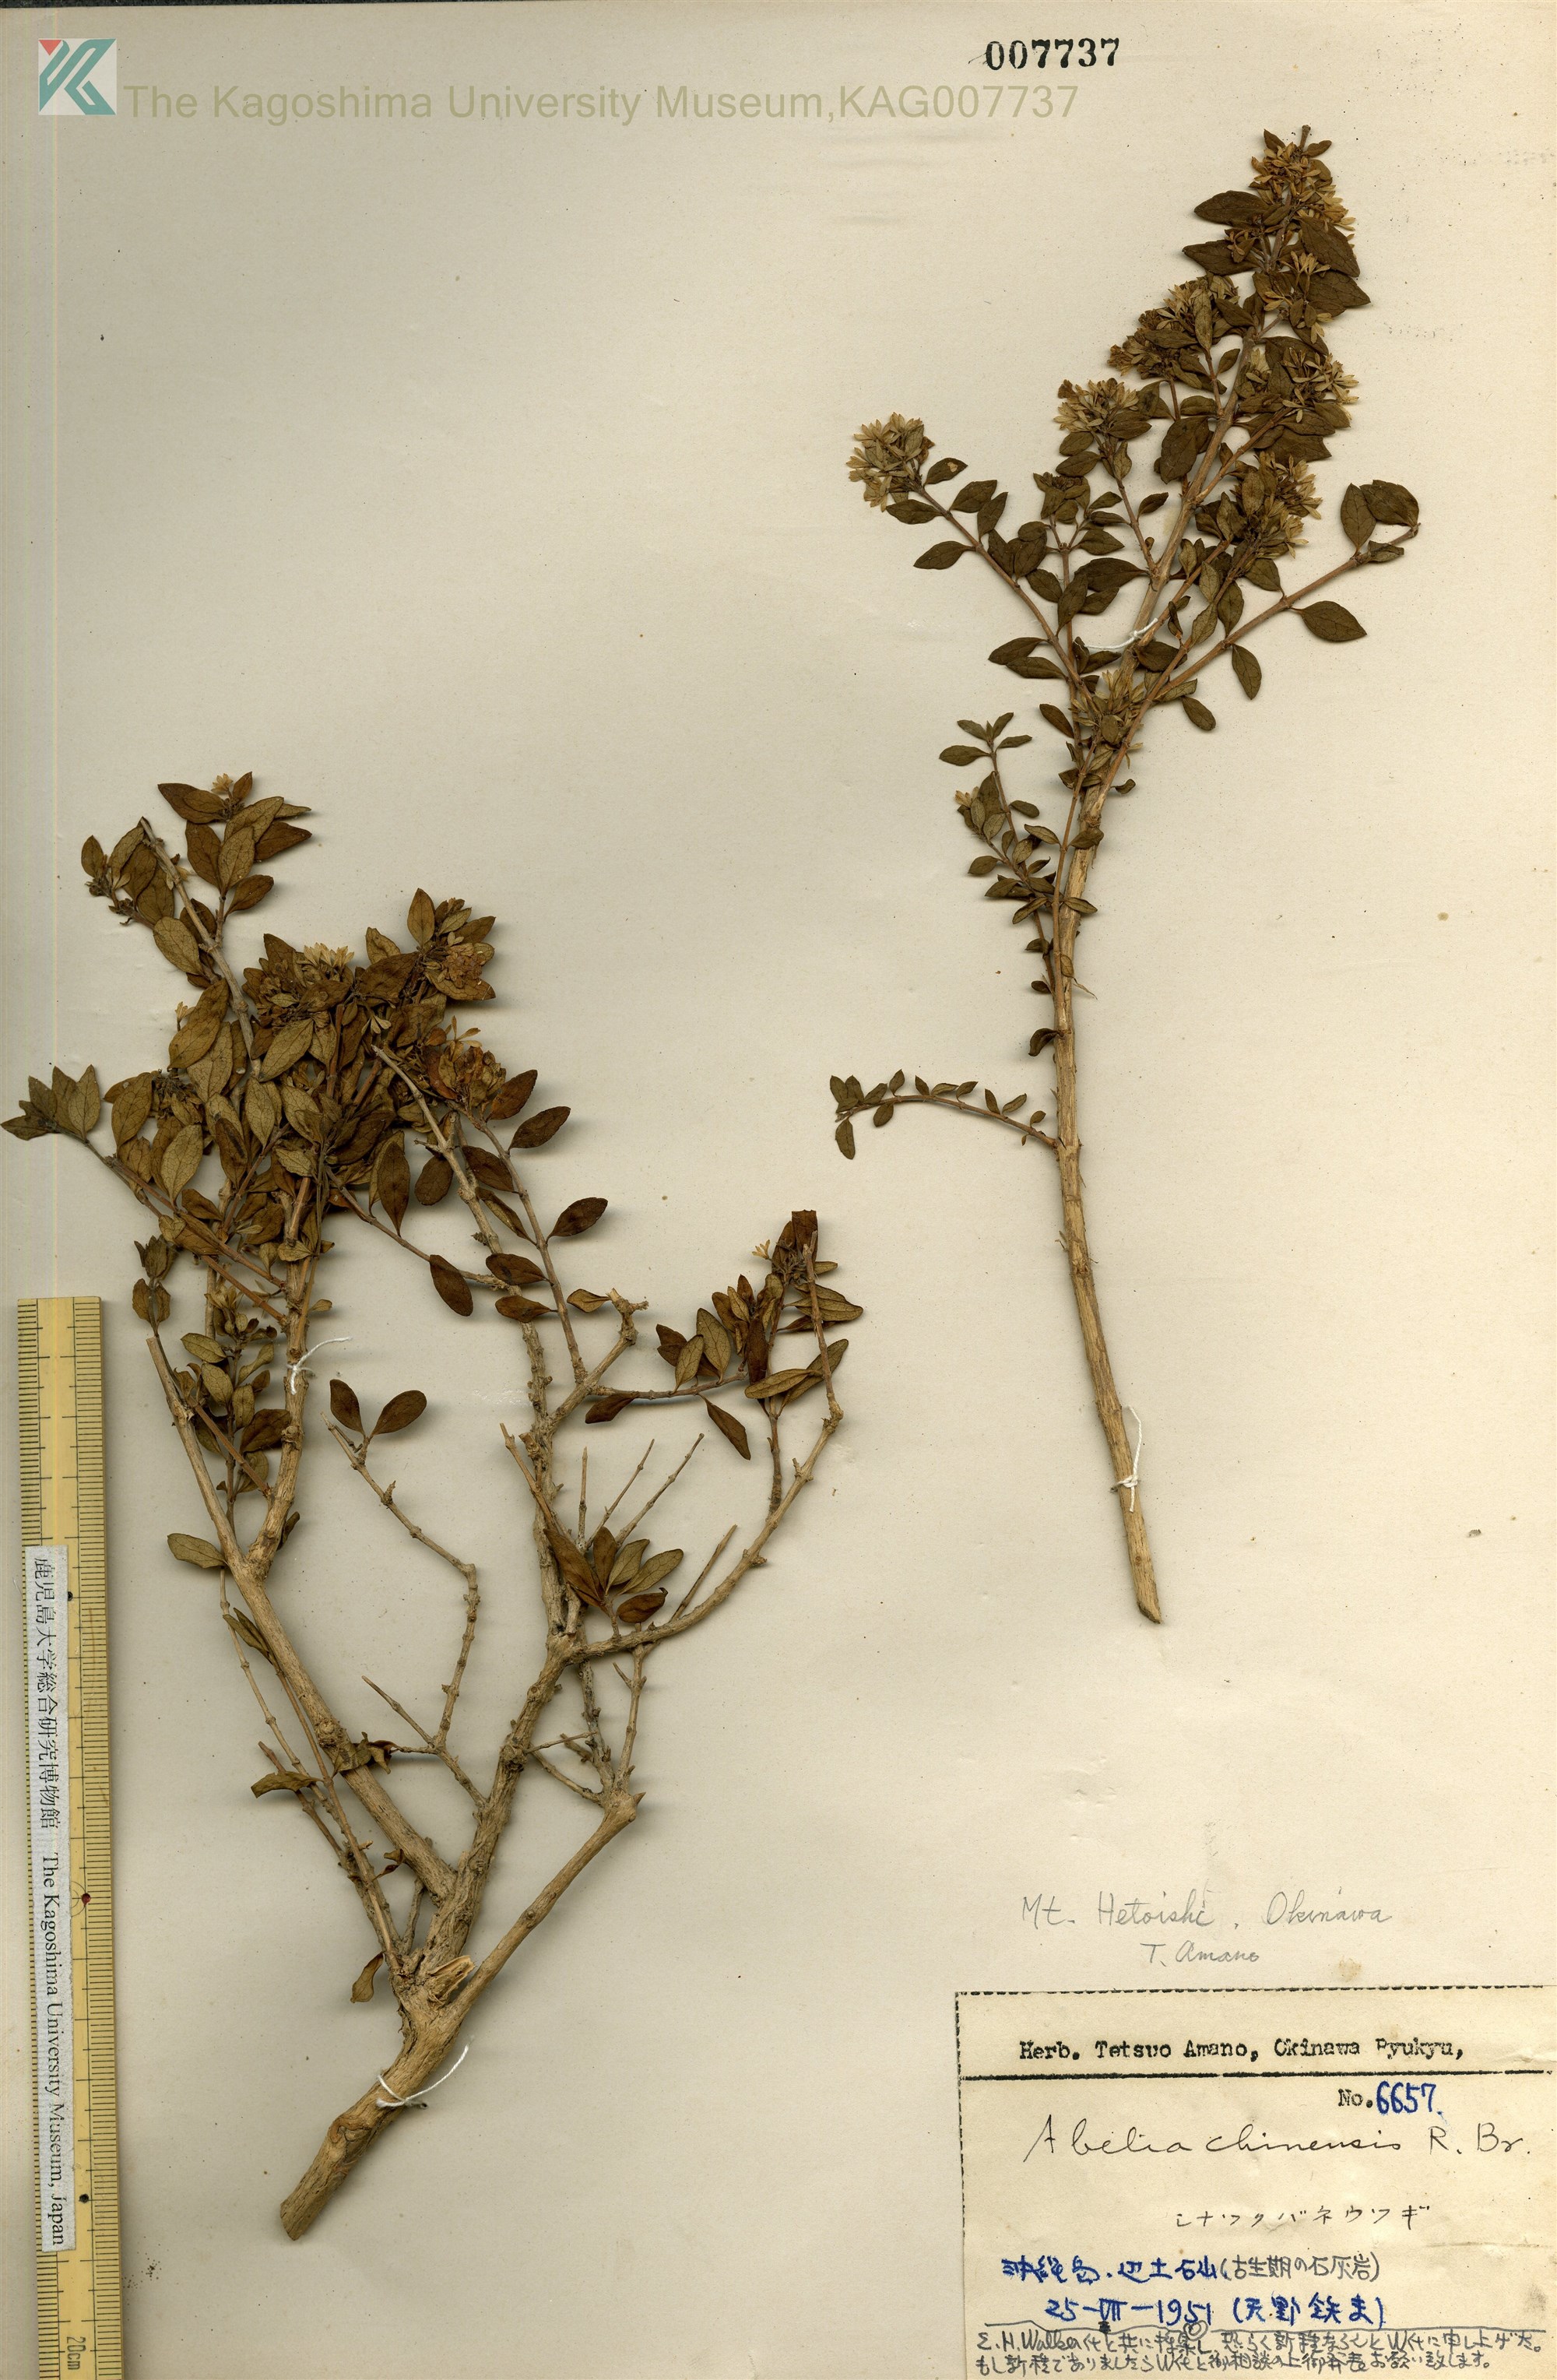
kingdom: Plantae
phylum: Tracheophyta
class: Magnoliopsida
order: Dipsacales
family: Caprifoliaceae
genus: Abelia
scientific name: Abelia chinensis
